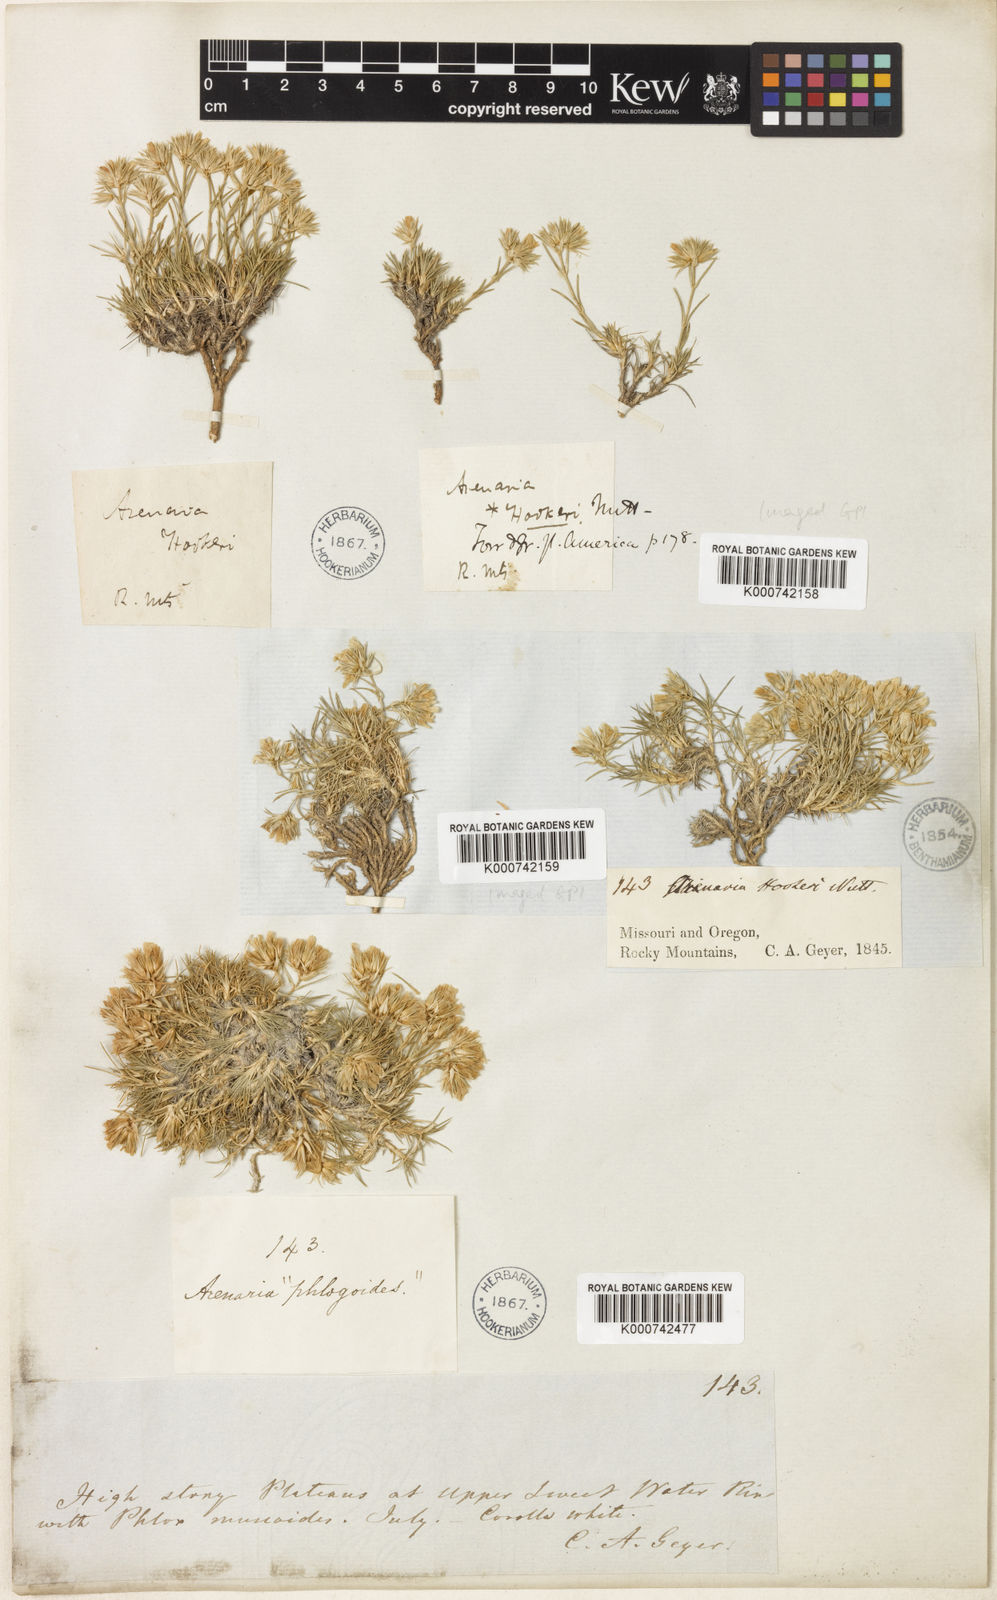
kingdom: Plantae
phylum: Tracheophyta
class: Magnoliopsida
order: Caryophyllales
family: Caryophyllaceae
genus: Eremogone
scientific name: Eremogone hookeri
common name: Hooker's sandwort
